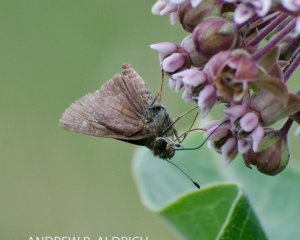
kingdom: Animalia
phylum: Arthropoda
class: Insecta
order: Lepidoptera
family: Hesperiidae
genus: Euphyes
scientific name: Euphyes vestris
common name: Dun Skipper
